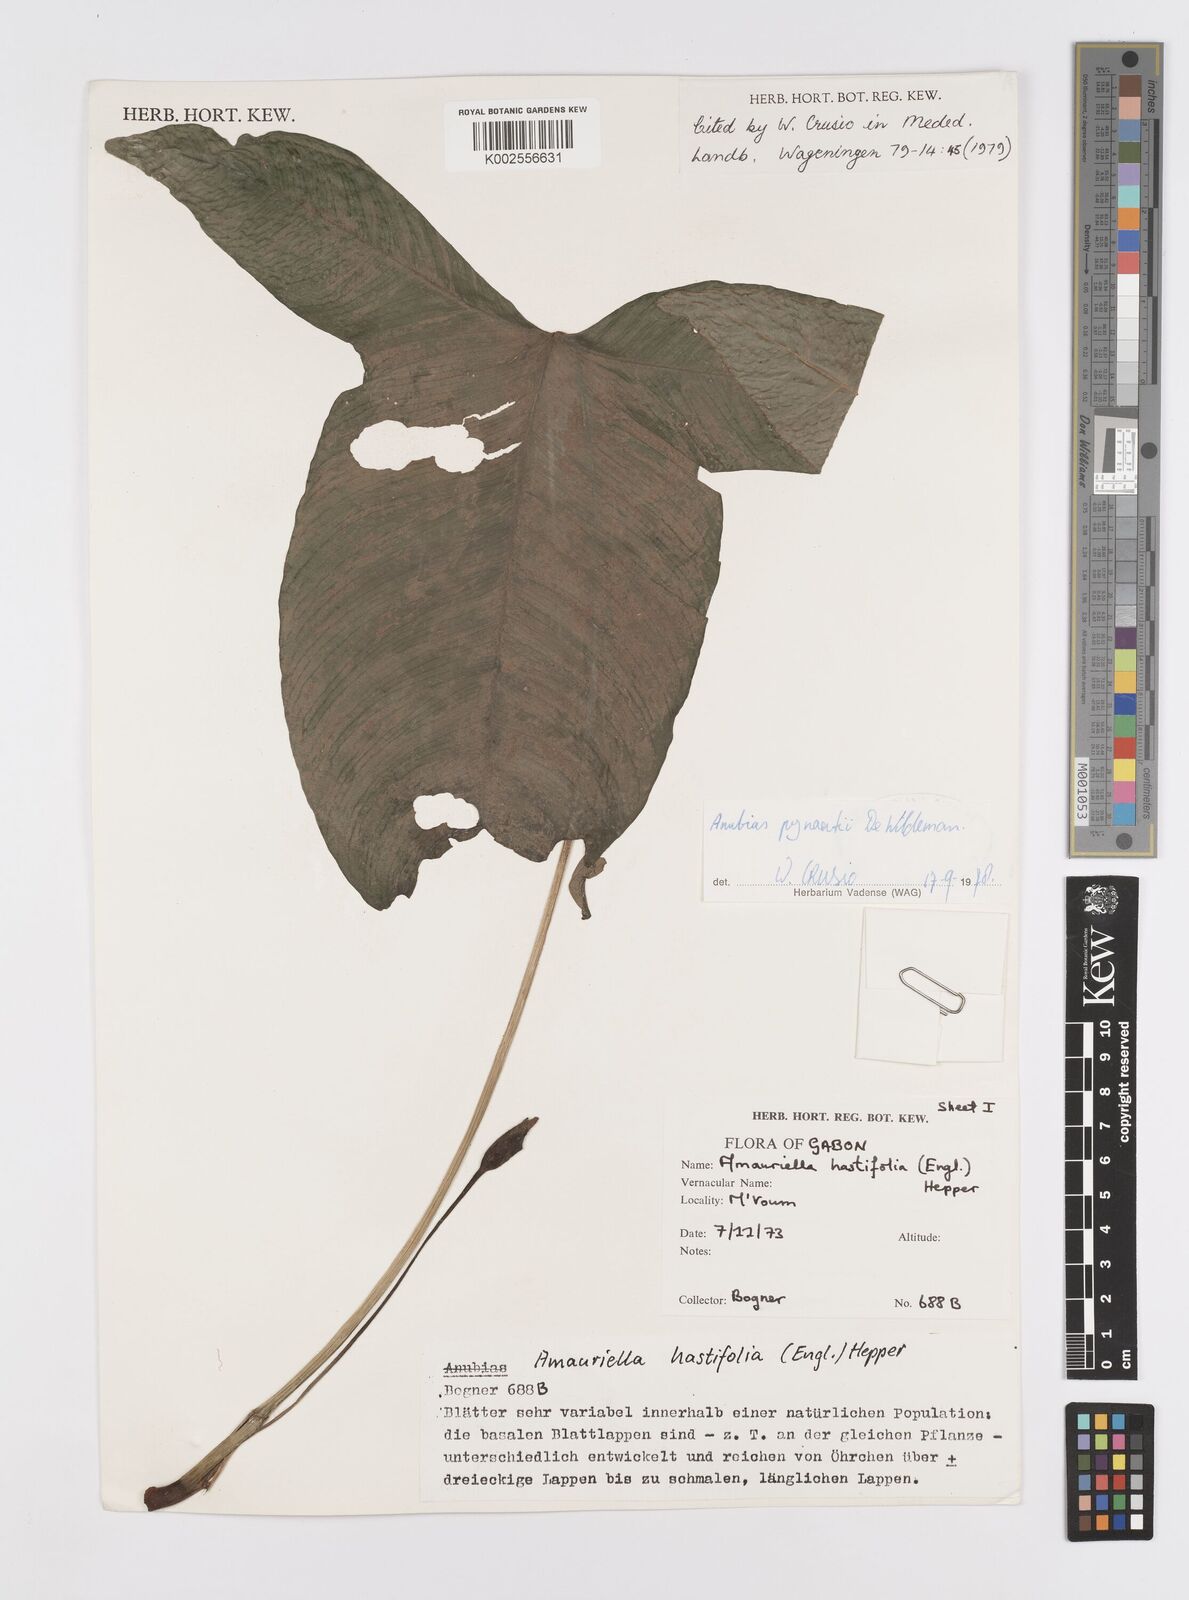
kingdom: Plantae
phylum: Tracheophyta
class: Liliopsida
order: Alismatales
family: Araceae
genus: Anubias
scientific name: Anubias pynaertii
